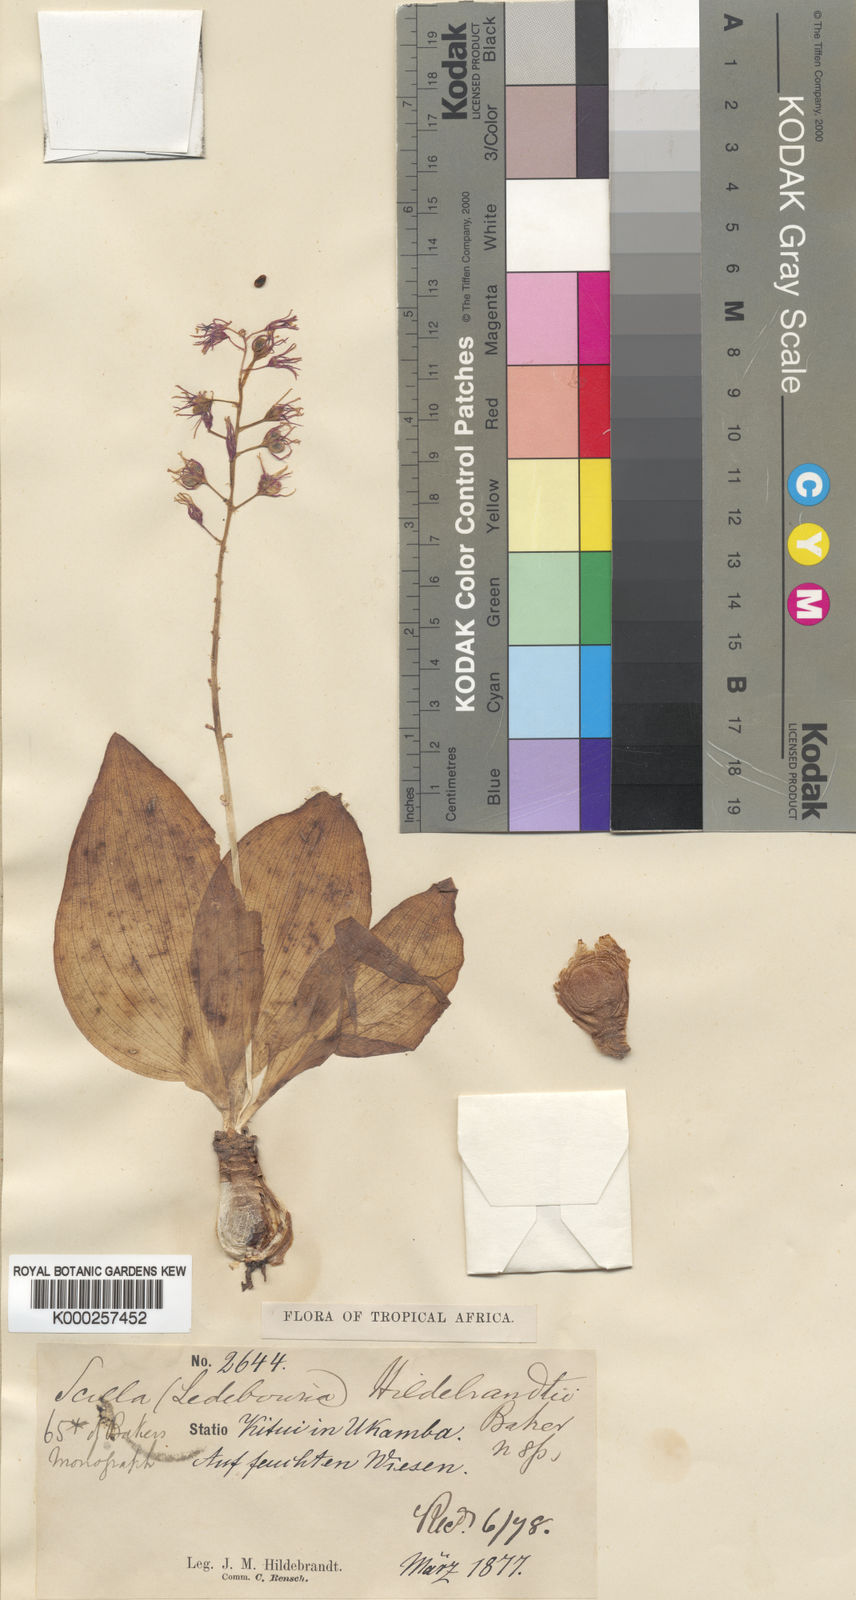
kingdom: Plantae
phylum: Tracheophyta
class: Liliopsida
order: Asparagales
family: Asparagaceae
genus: Ledebouria
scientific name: Ledebouria kirkii
